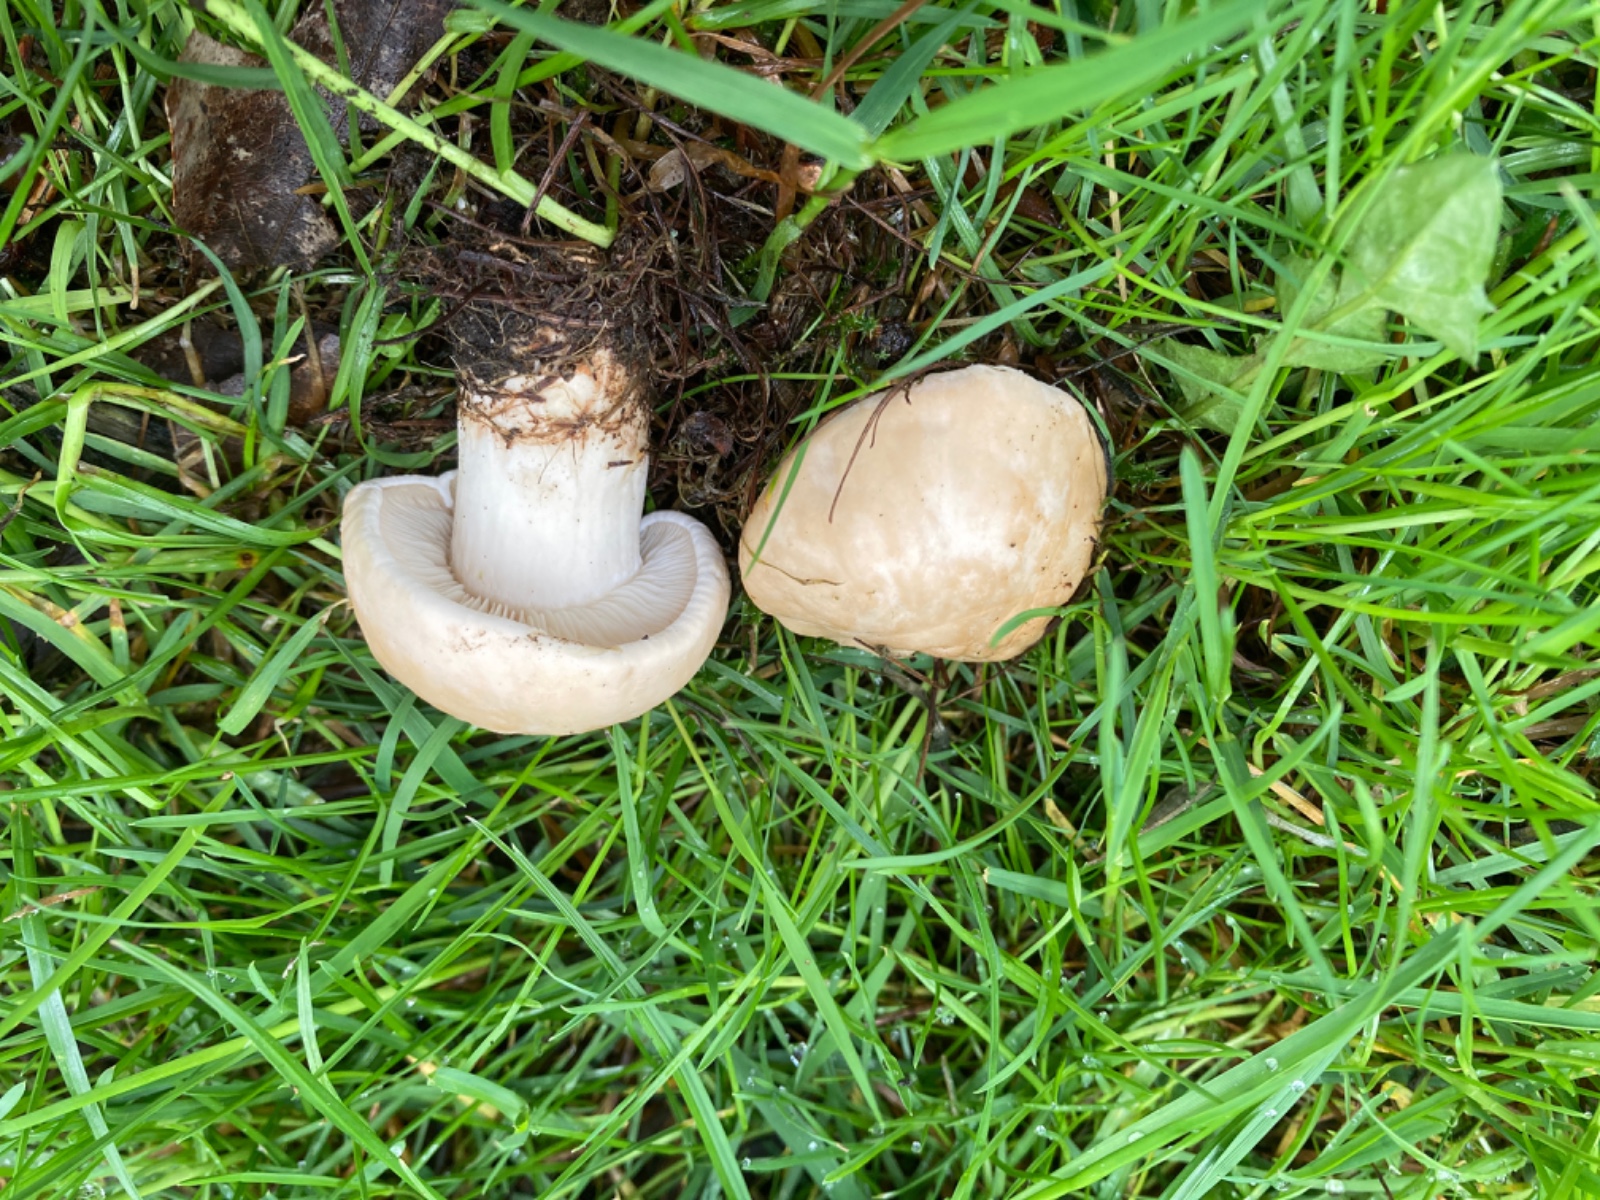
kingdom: Fungi
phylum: Basidiomycota
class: Agaricomycetes
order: Agaricales
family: Lyophyllaceae
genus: Calocybe
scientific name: Calocybe gambosa
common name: vårmusseron
